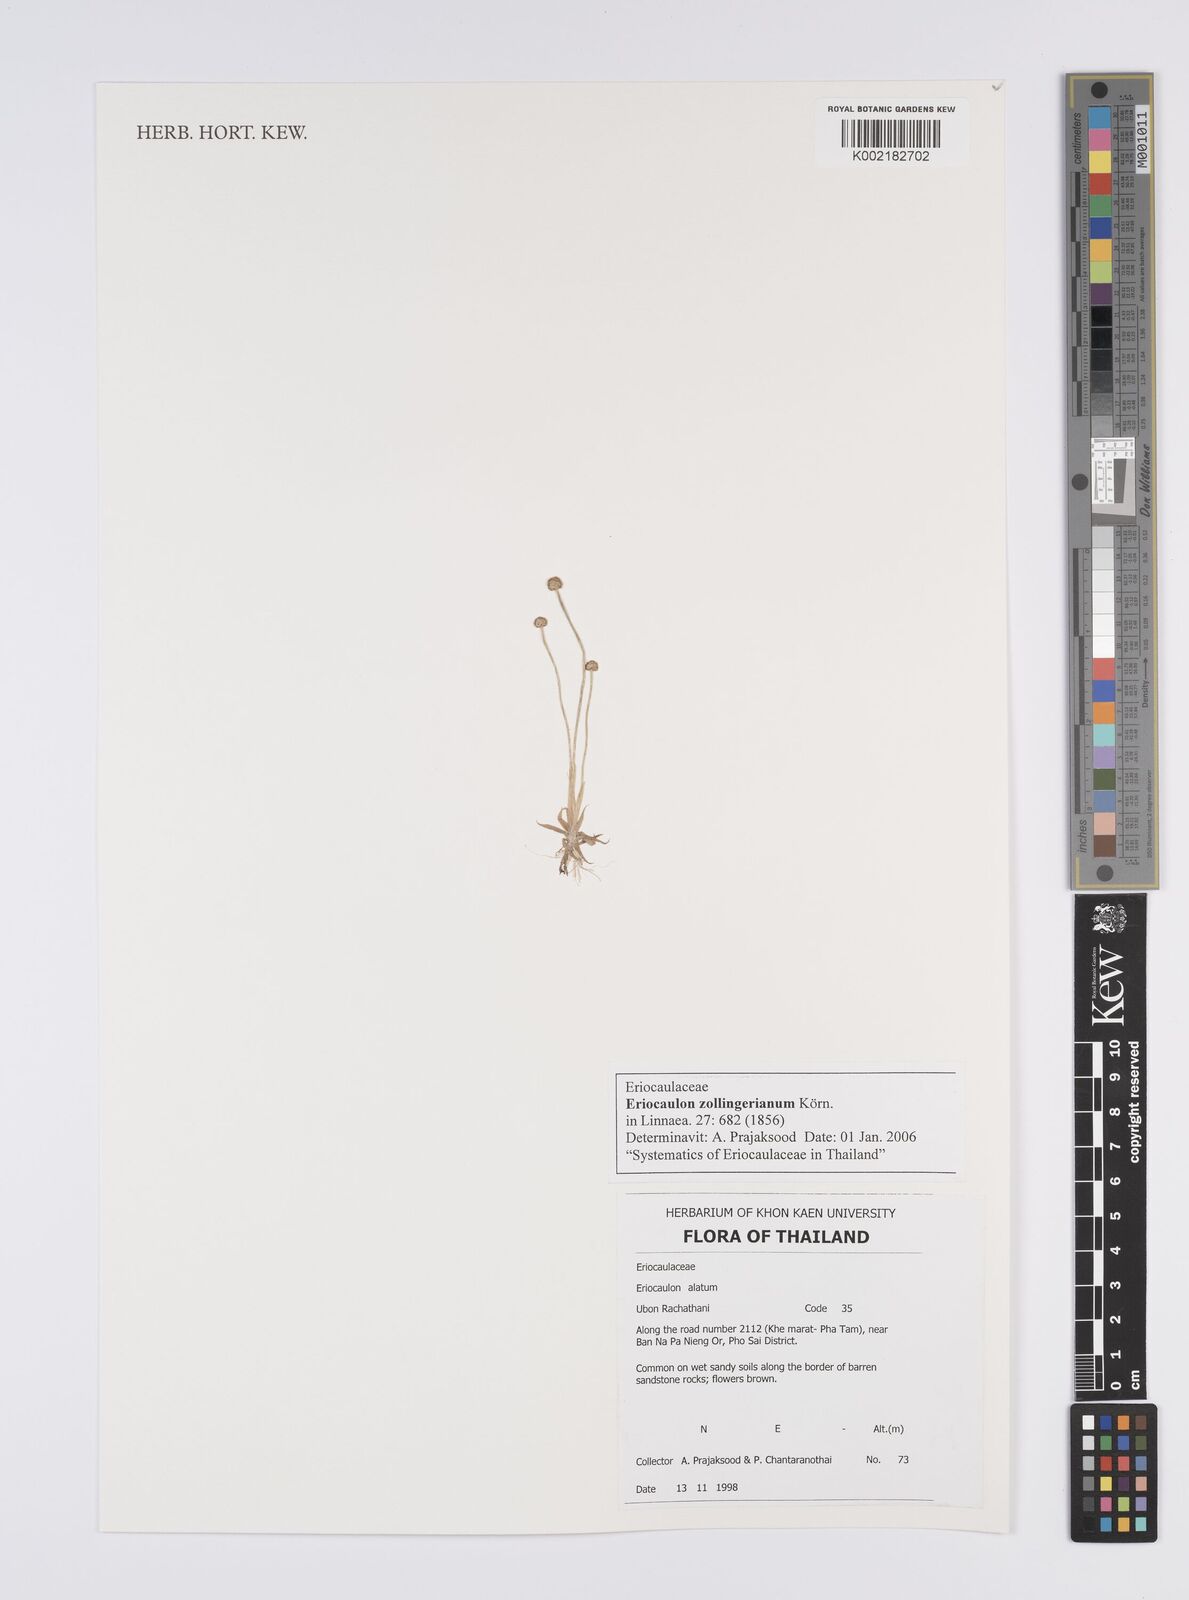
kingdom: Plantae
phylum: Tracheophyta
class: Liliopsida
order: Poales
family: Eriocaulaceae
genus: Eriocaulon
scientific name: Eriocaulon zollingerianum
